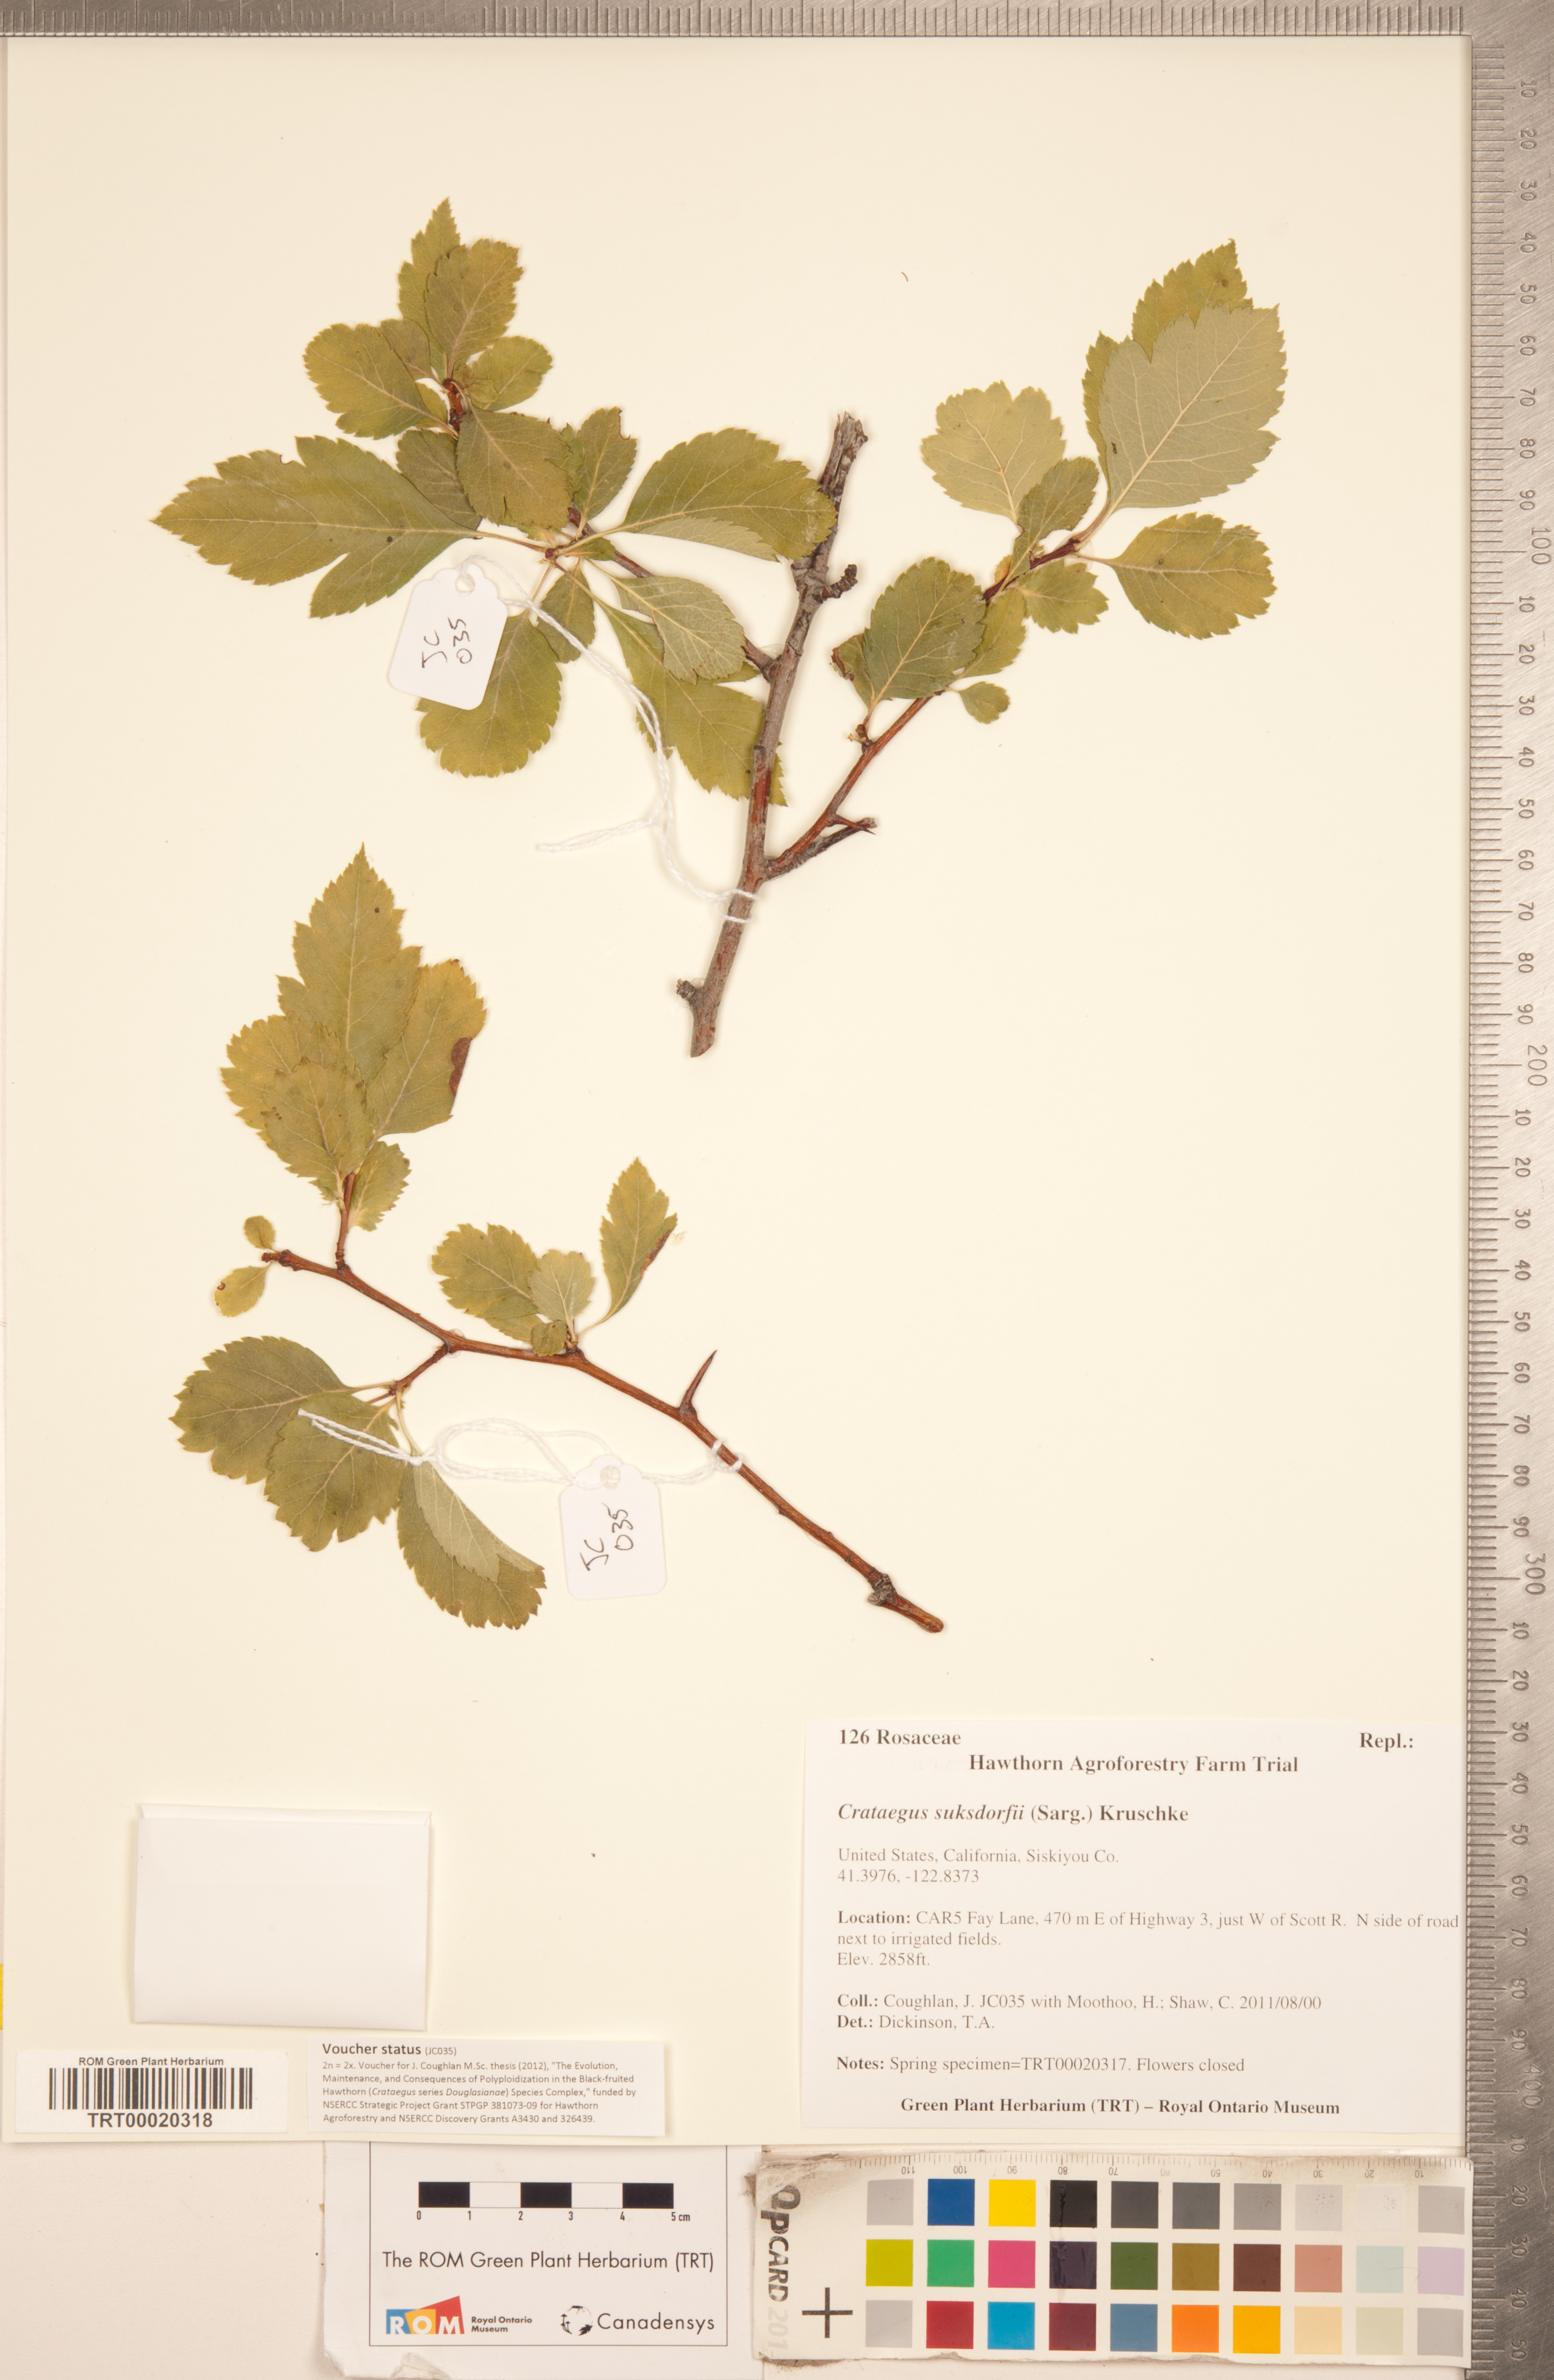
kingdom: Plantae
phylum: Tracheophyta
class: Magnoliopsida
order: Rosales
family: Rosaceae
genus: Crataegus
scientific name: Crataegus gaylussacia
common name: Huckleberry hawthorn
